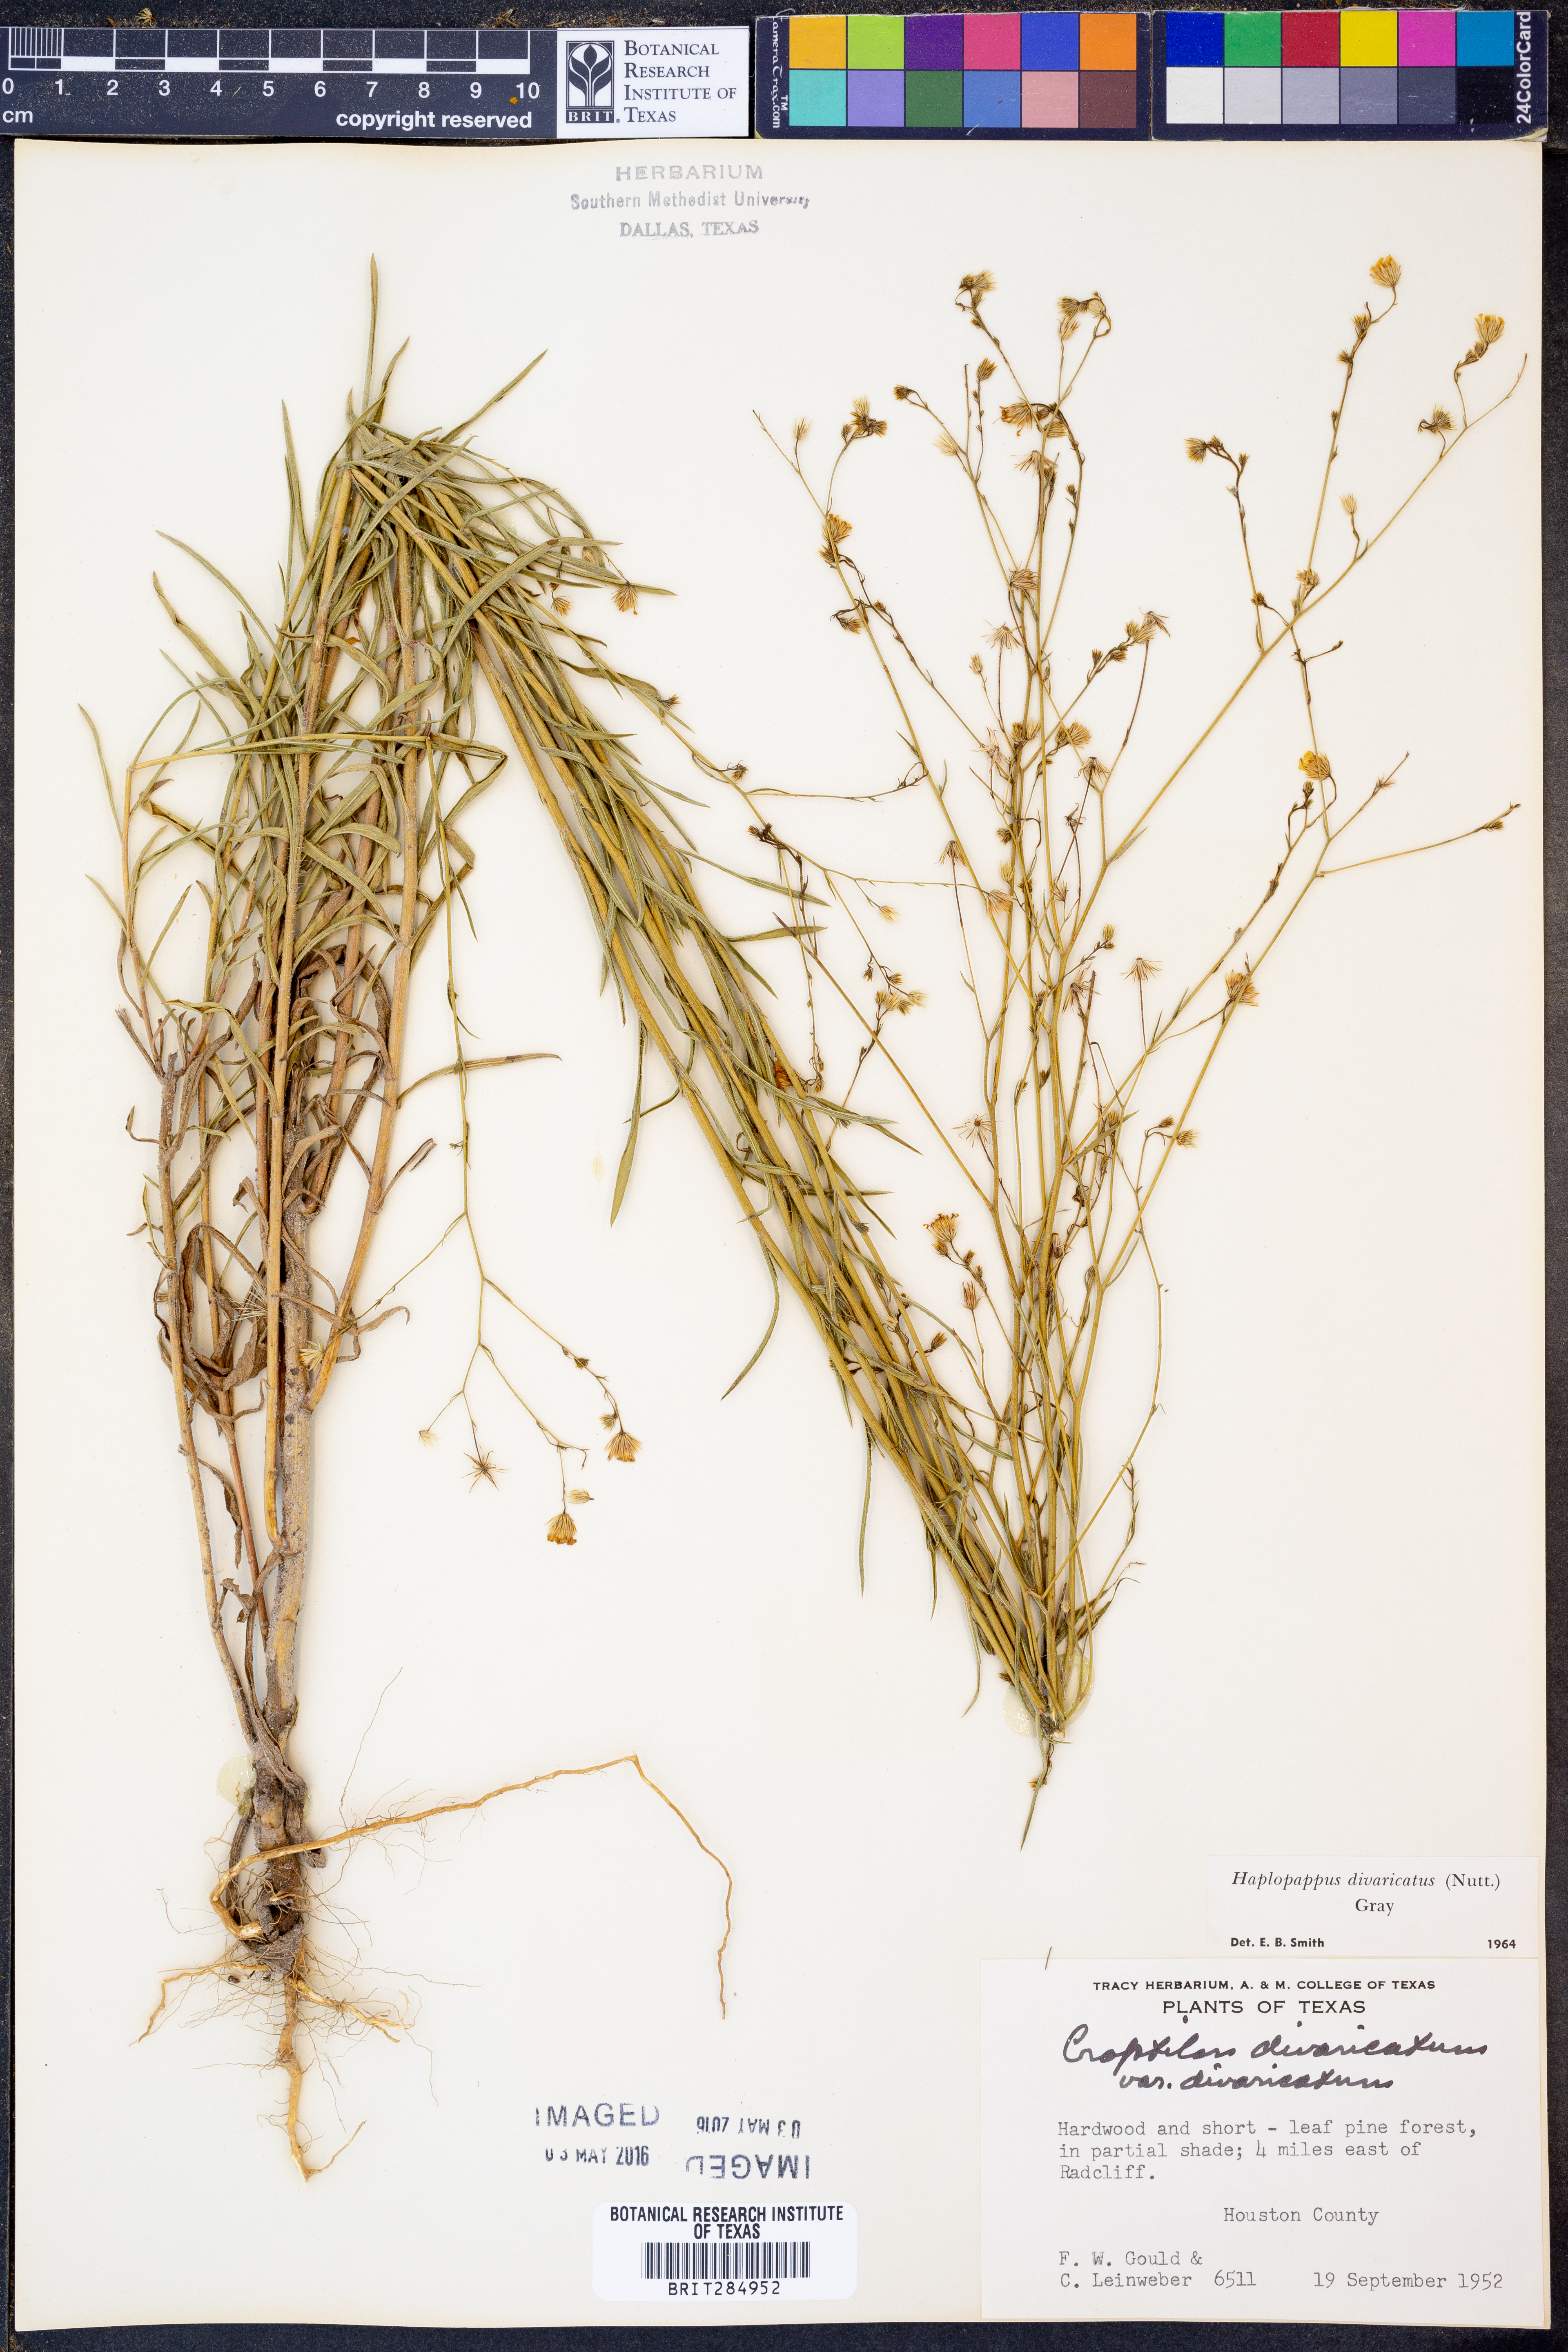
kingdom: Plantae
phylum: Tracheophyta
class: Magnoliopsida
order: Asterales
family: Asteraceae
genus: Croptilon
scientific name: Croptilon divaricatum
